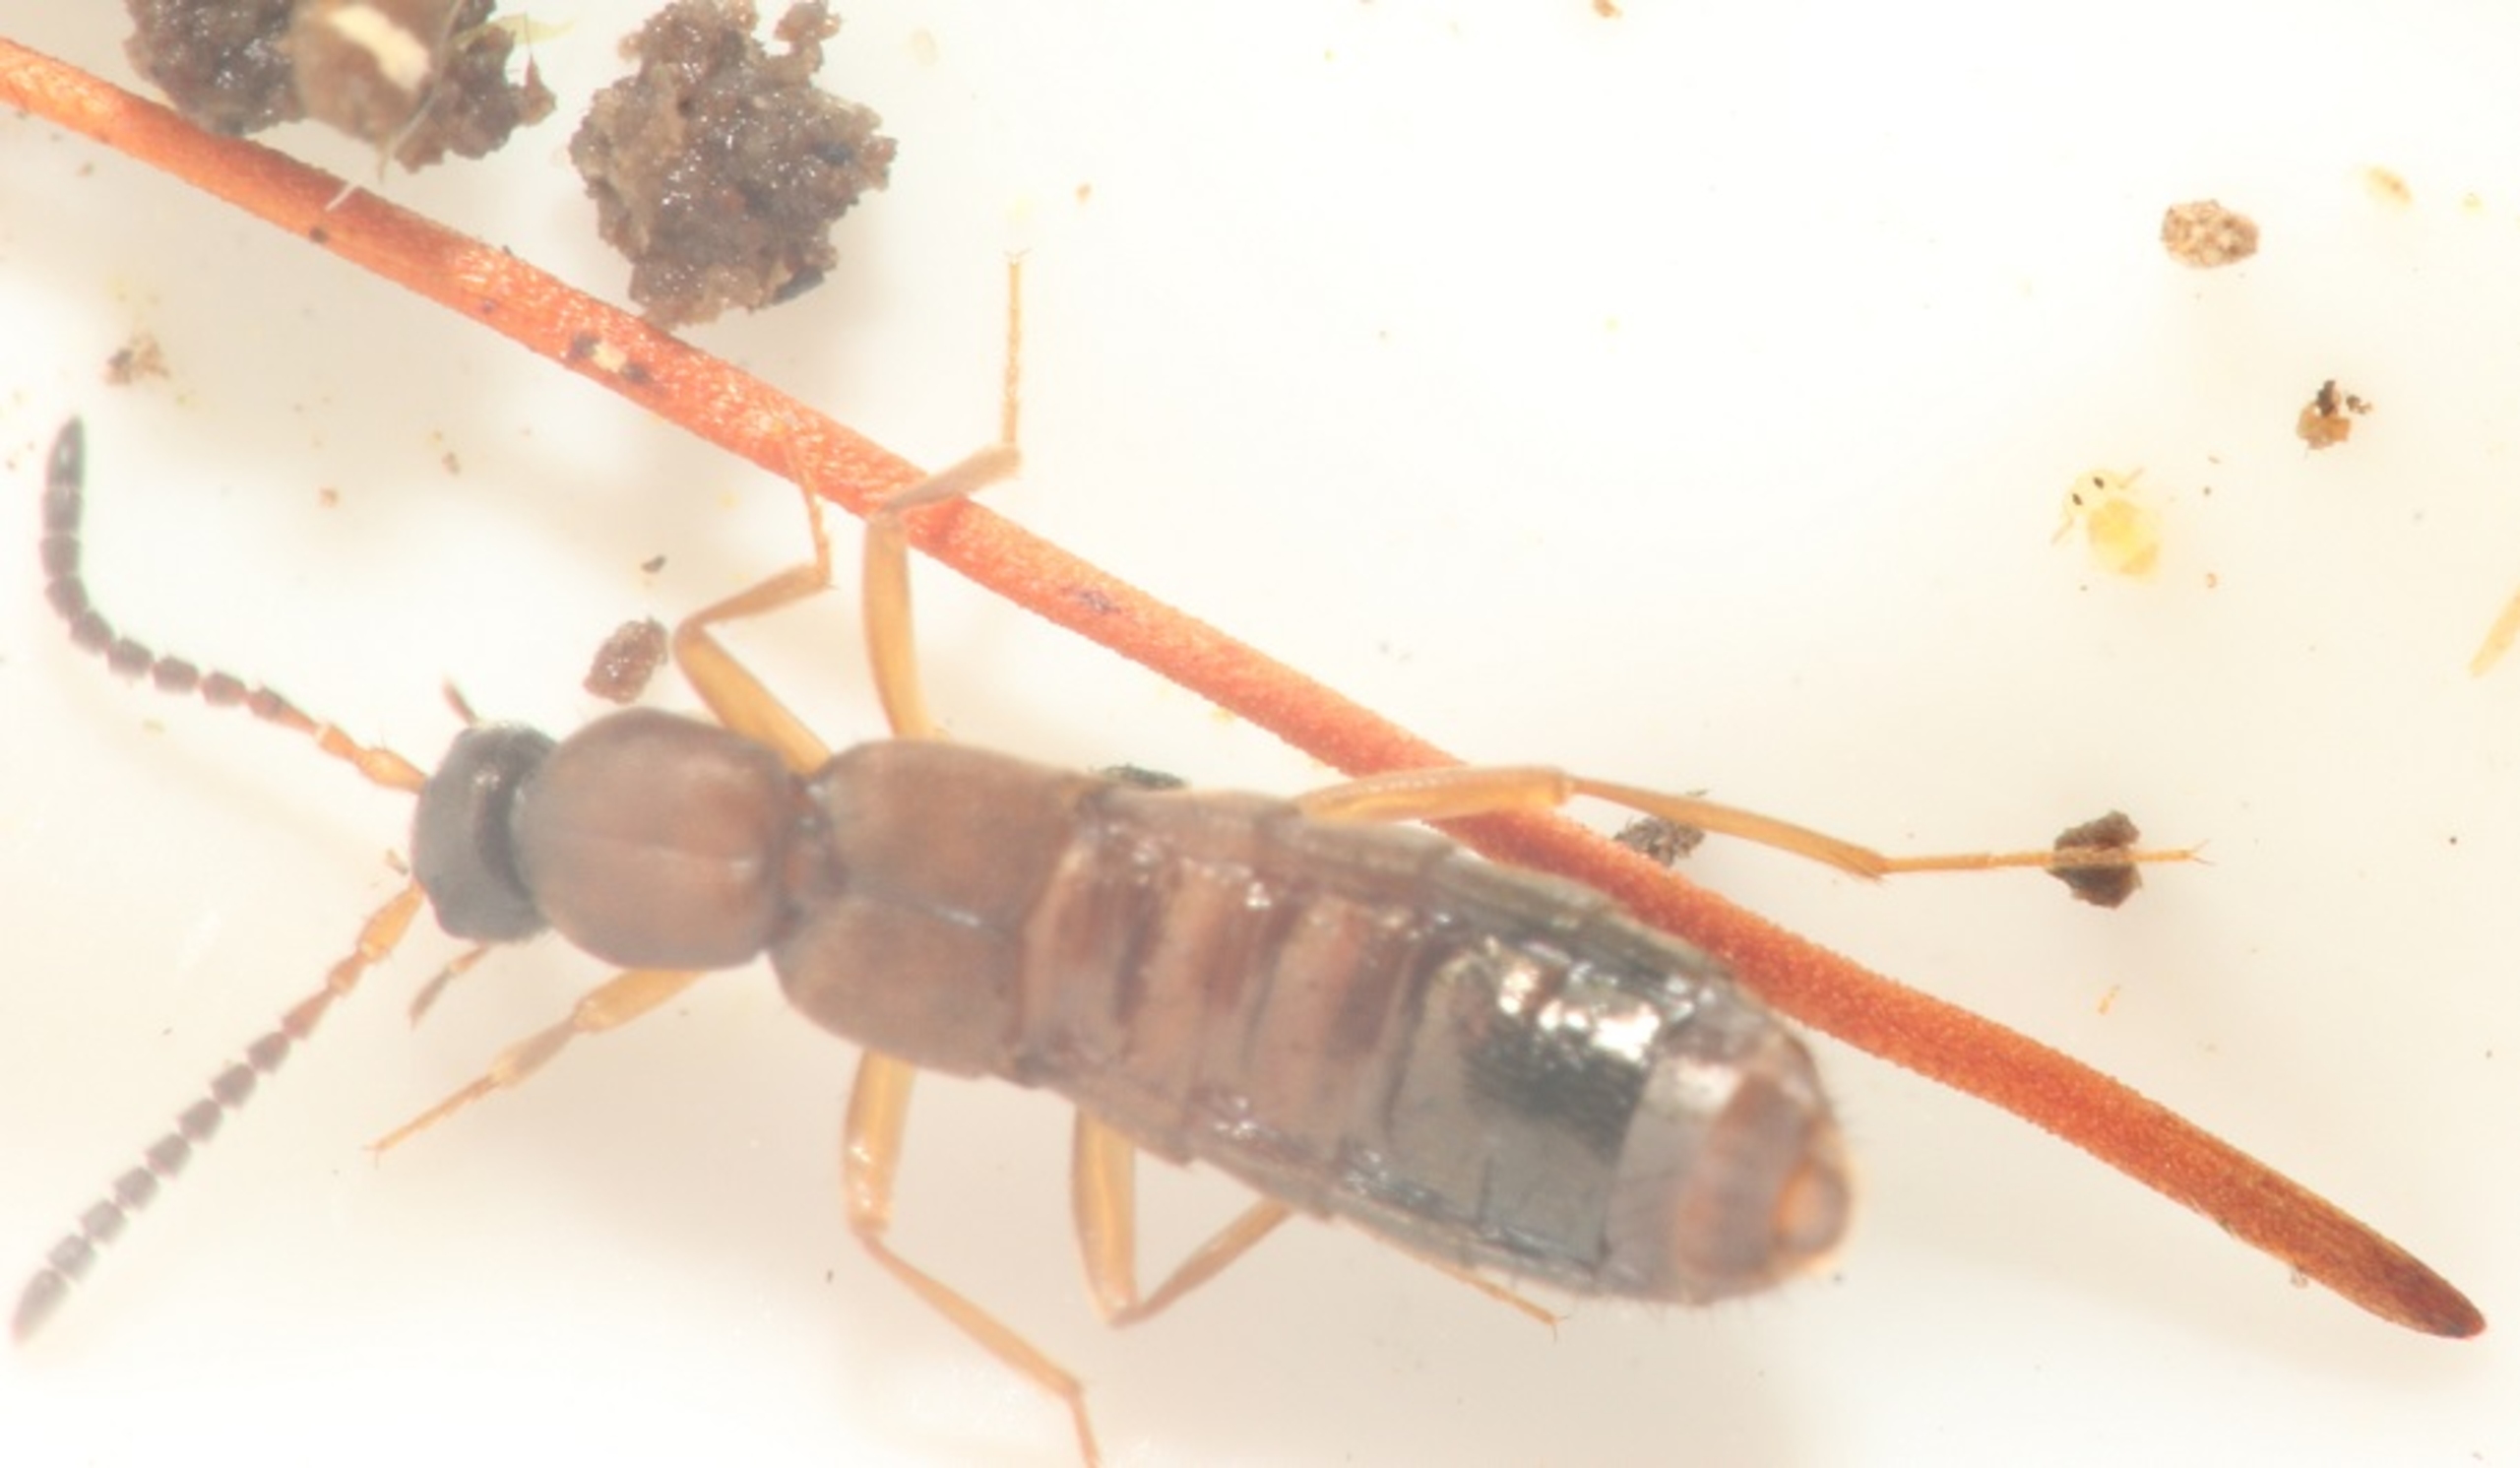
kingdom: Animalia
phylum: Arthropoda
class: Insecta
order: Coleoptera
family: Staphylinidae
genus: Drusilla
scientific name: Drusilla canaliculata
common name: Myrerøver
